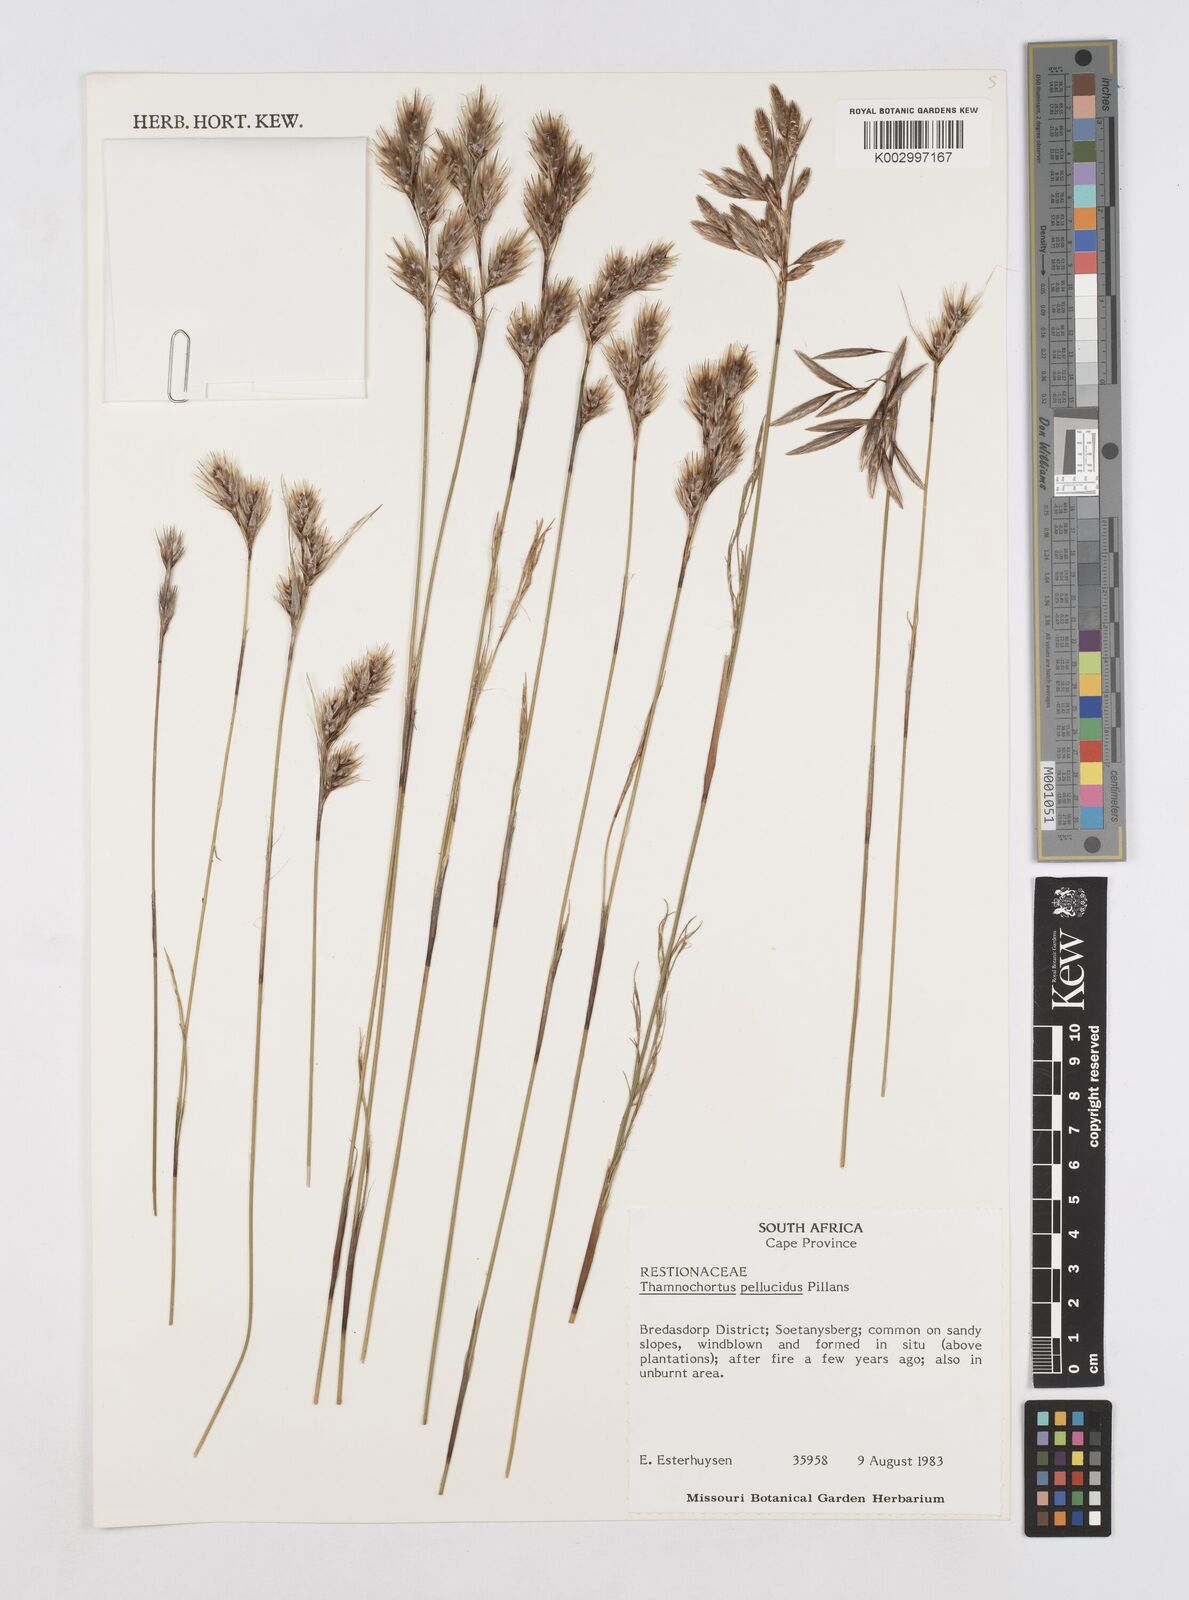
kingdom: Plantae
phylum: Tracheophyta
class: Liliopsida
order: Poales
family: Restionaceae
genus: Thamnochortus
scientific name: Thamnochortus pellucidus
